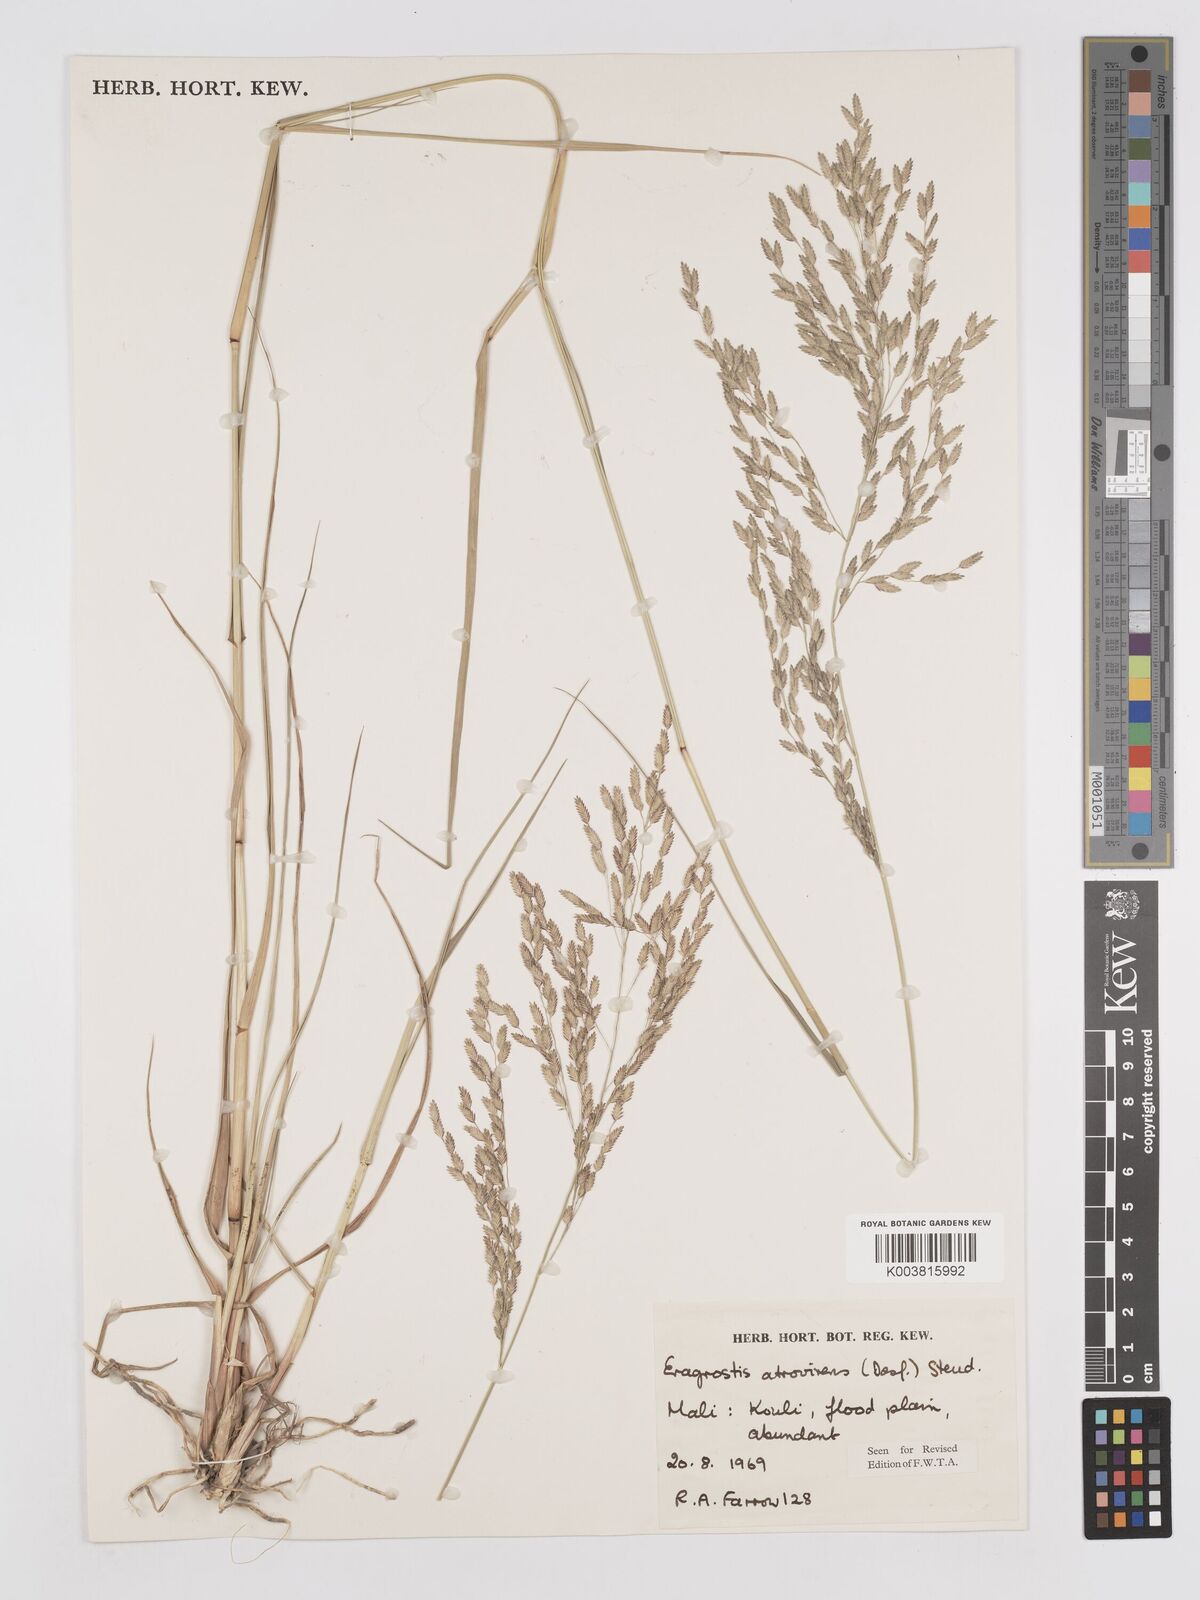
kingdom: Plantae
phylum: Tracheophyta
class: Liliopsida
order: Poales
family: Poaceae
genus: Eragrostis
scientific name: Eragrostis atrovirens
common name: Thalia lovegrass
